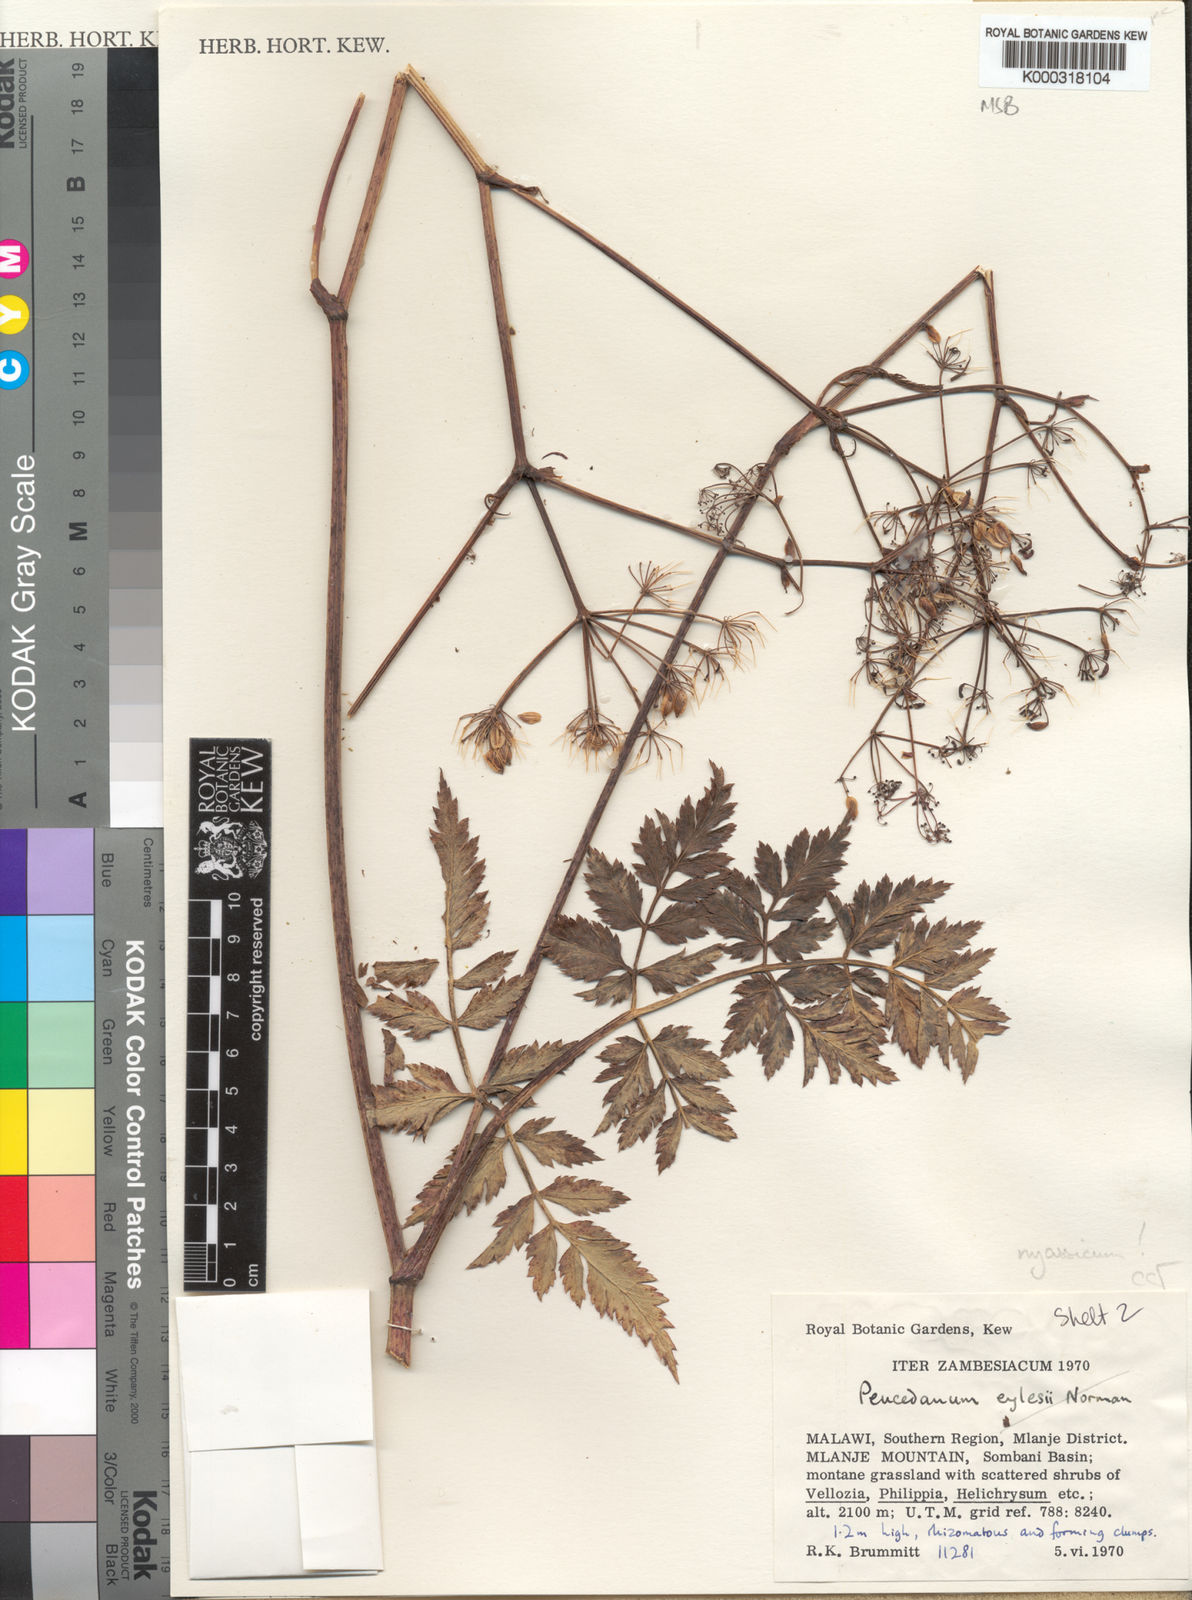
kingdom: Plantae
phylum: Tracheophyta
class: Magnoliopsida
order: Apiales
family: Apiaceae
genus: Afrosciadium
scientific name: Afrosciadium nyassicum
